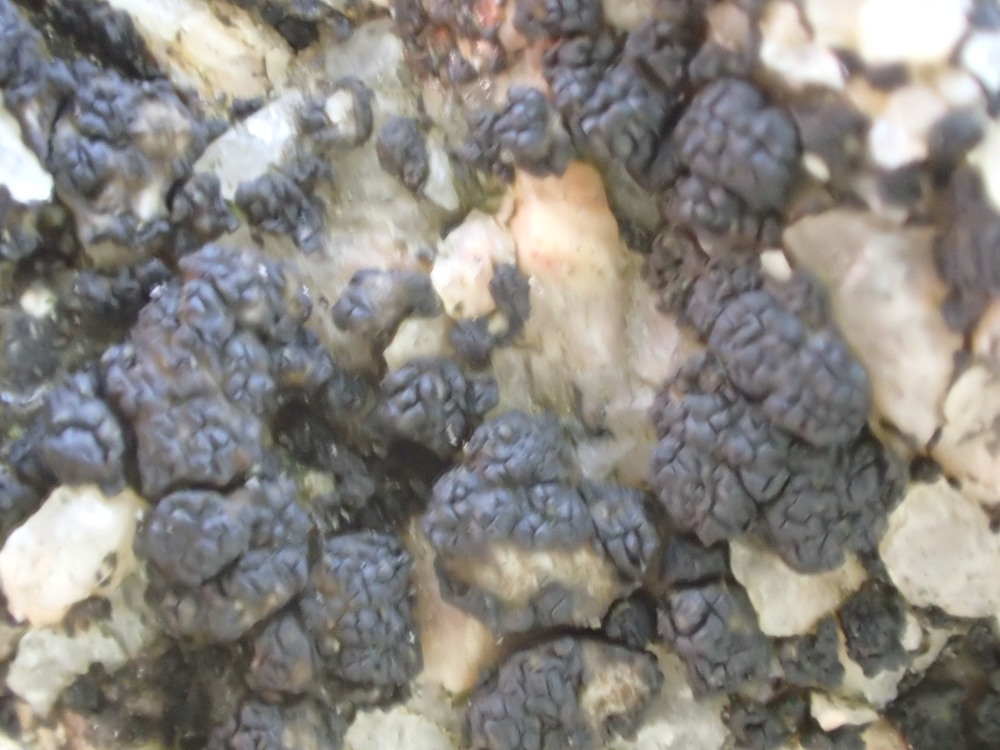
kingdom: Fungi
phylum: Ascomycota
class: Lecanoromycetes
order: Acarosporales
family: Acarosporaceae
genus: Acarospora
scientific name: Acarospora privigna
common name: sort foldekantlav
